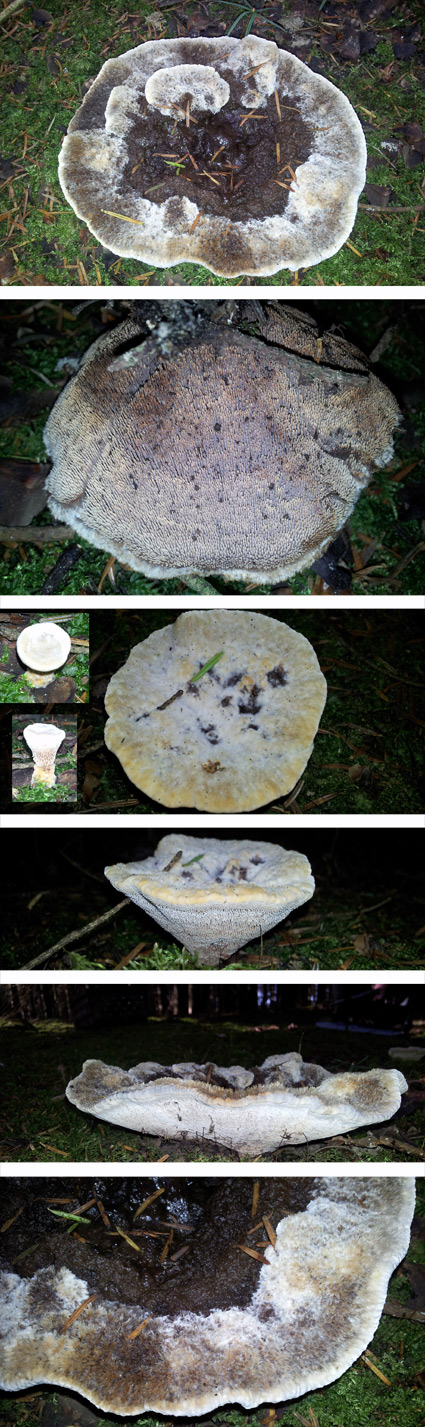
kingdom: Fungi
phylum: Basidiomycota
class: Agaricomycetes
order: Thelephorales
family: Bankeraceae
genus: Hydnellum
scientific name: Hydnellum caeruleum
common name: blålig korkpigsvamp
